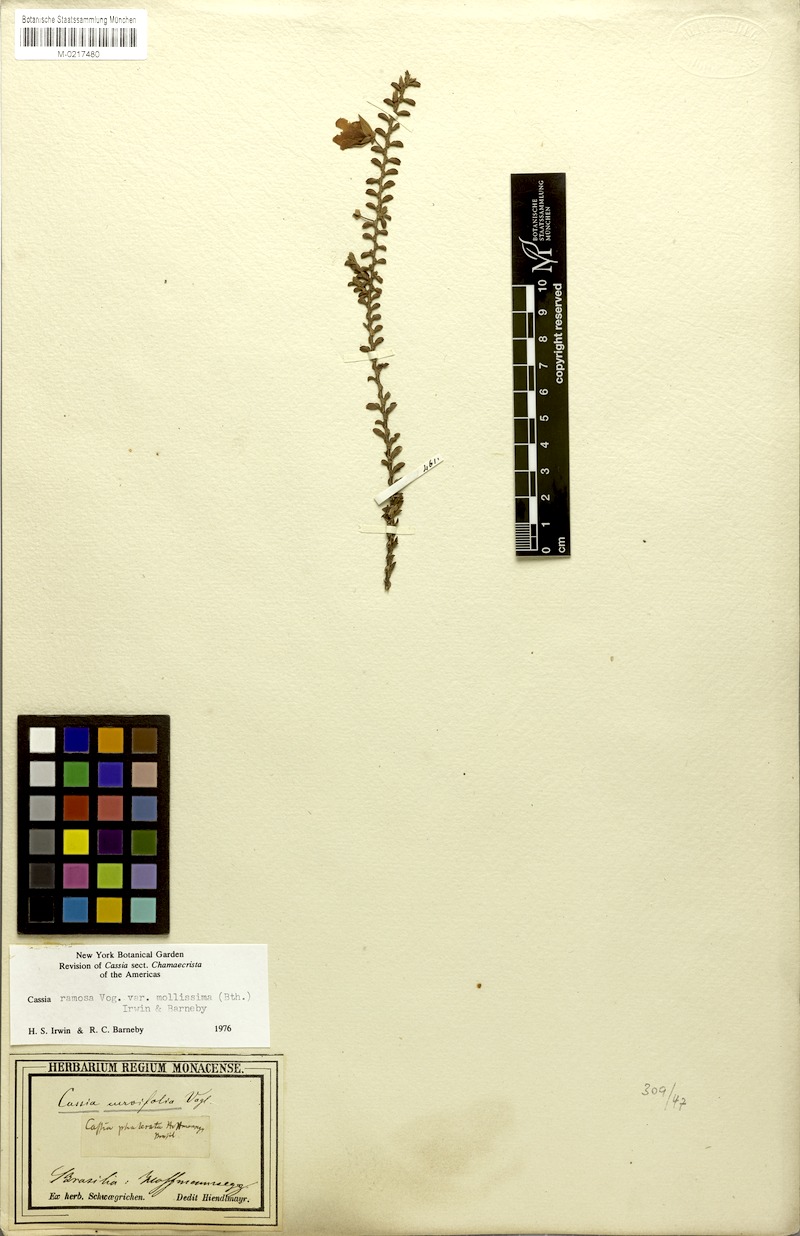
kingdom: Plantae
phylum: Tracheophyta
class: Magnoliopsida
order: Fabales
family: Fabaceae
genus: Chamaecrista
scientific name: Chamaecrista ramosa
